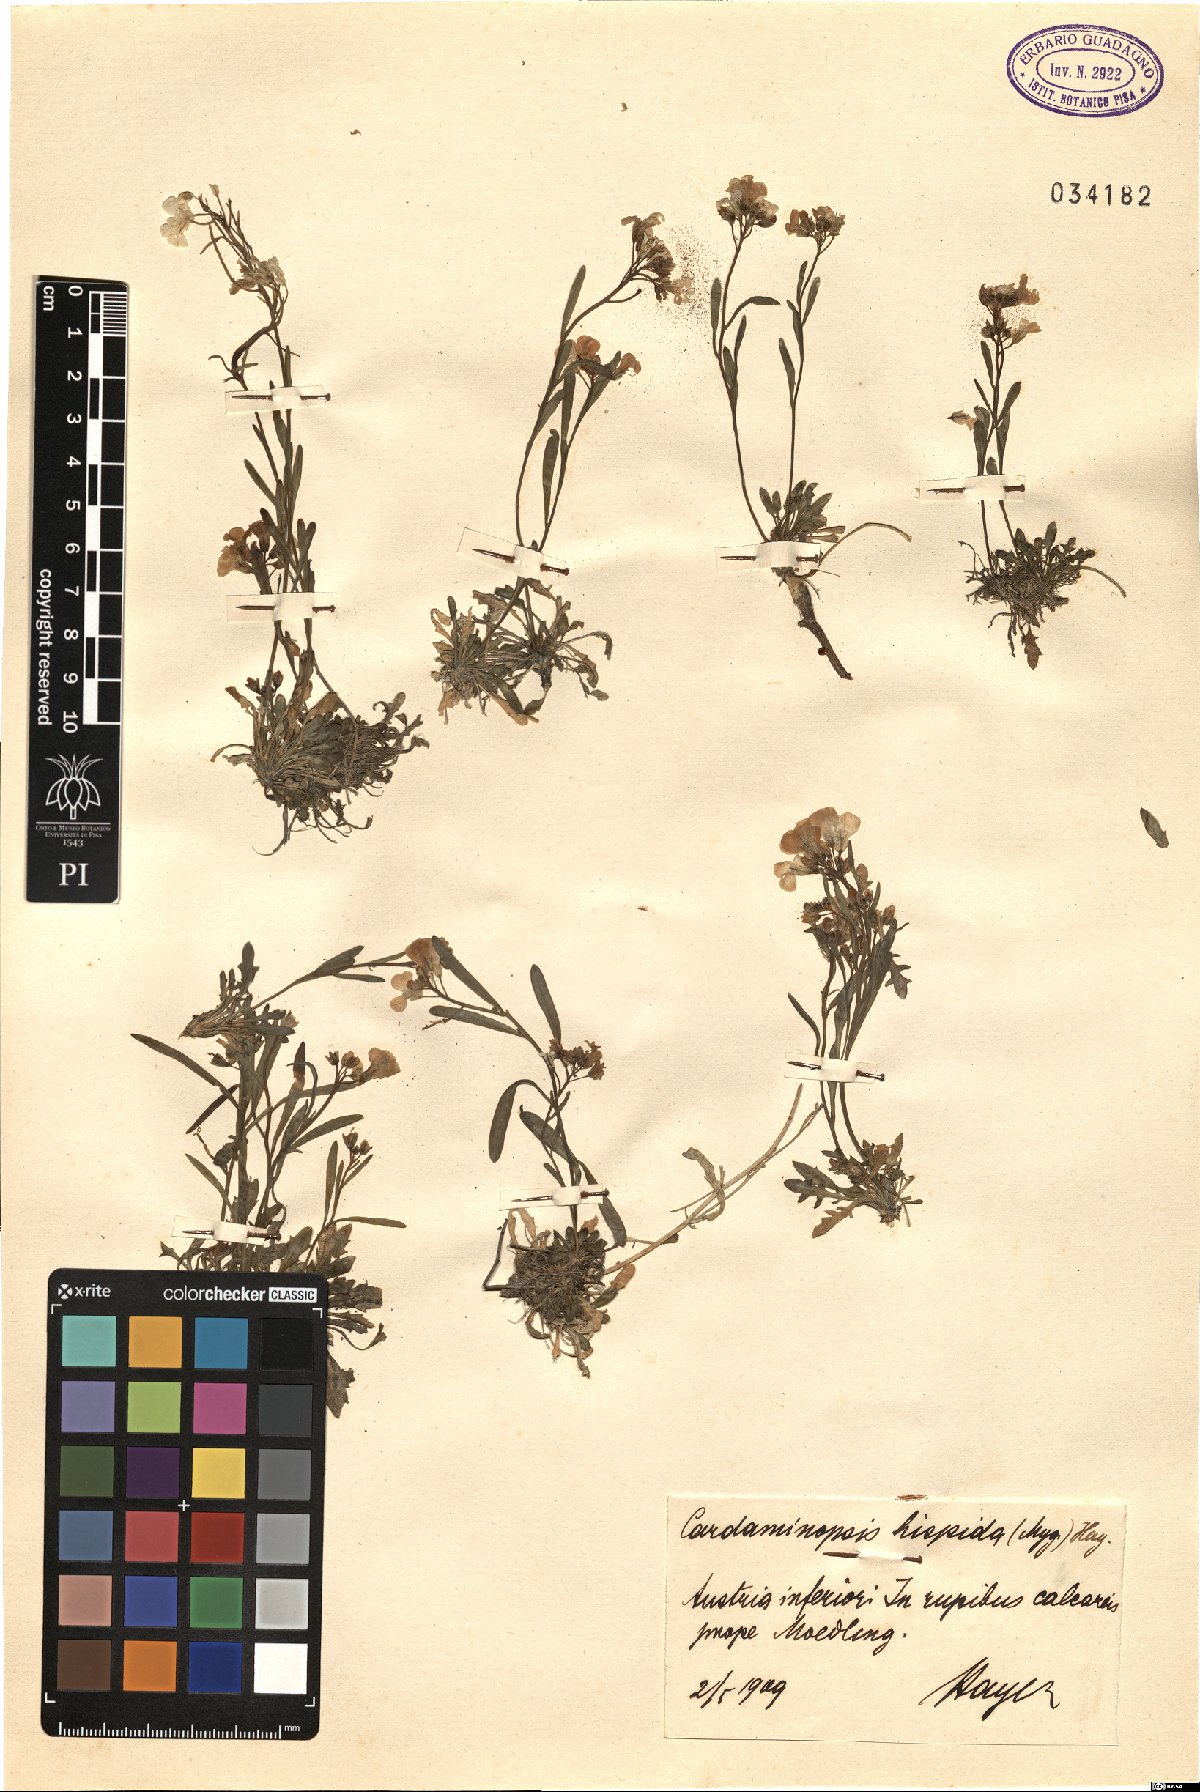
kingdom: Plantae
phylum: Tracheophyta
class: Magnoliopsida
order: Brassicales
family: Brassicaceae
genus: Arabidopsis
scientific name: Arabidopsis lyrata
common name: Lyrate rockcress
